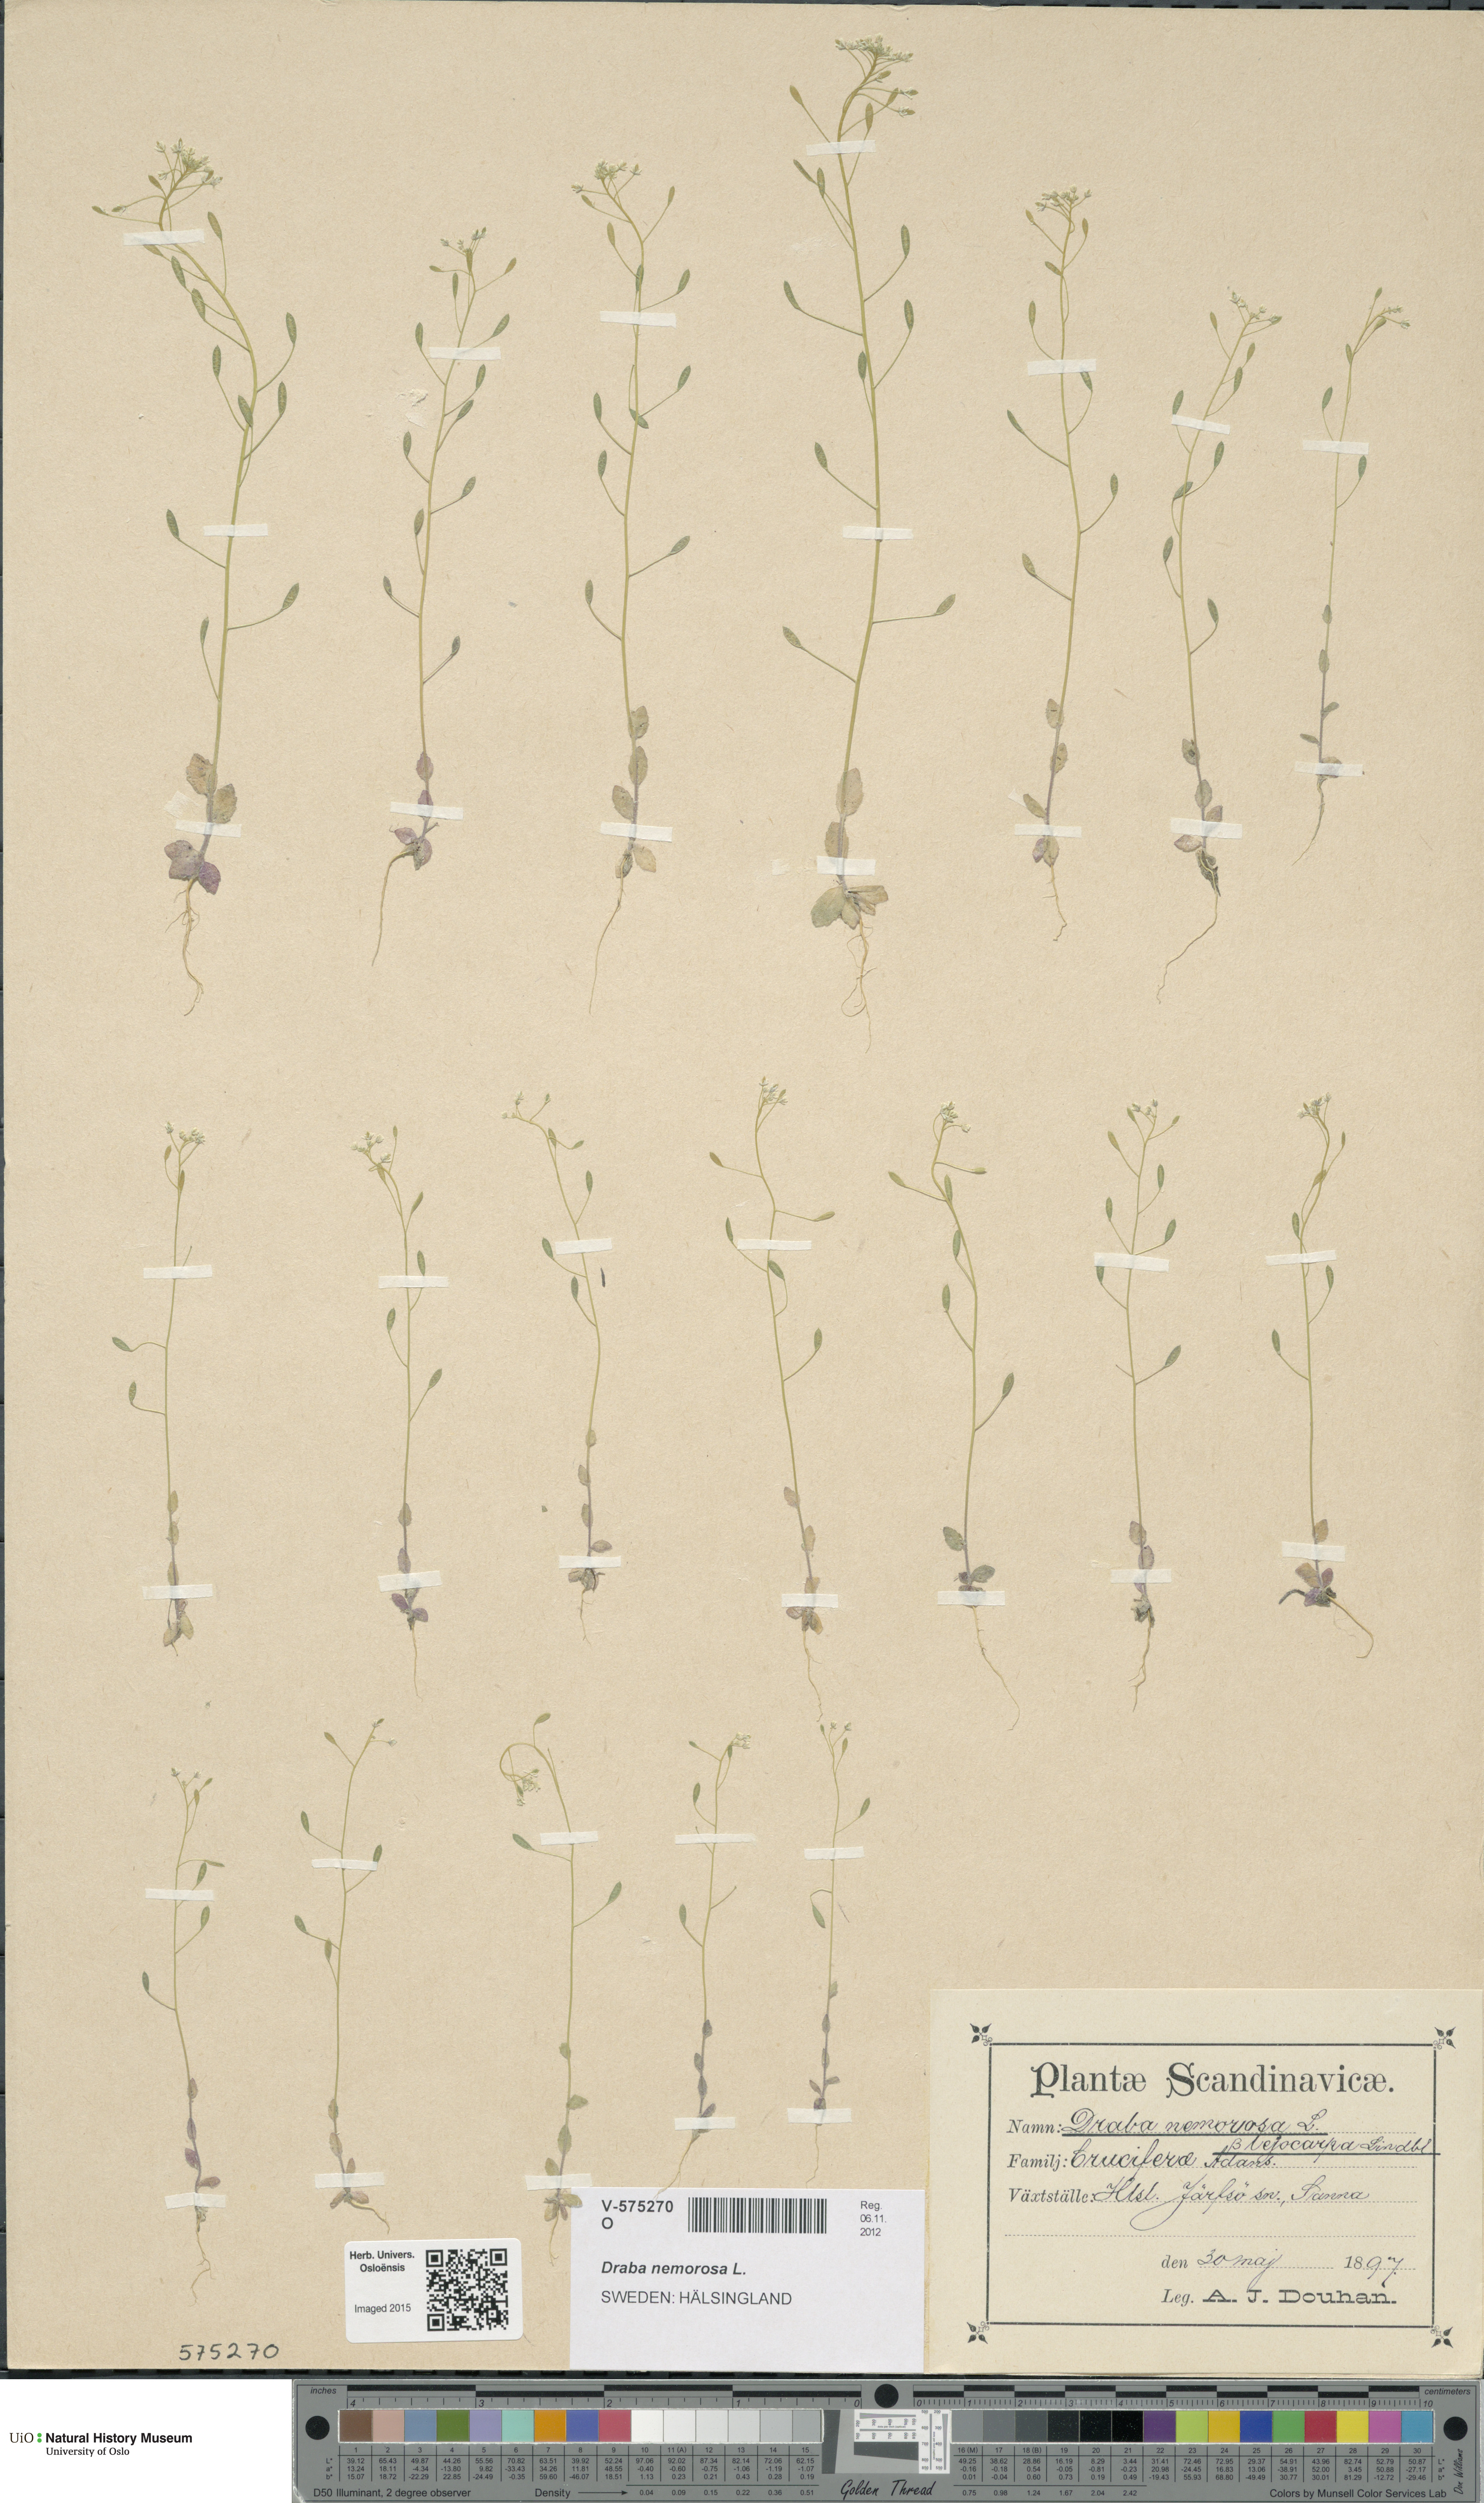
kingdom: Plantae
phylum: Tracheophyta
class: Magnoliopsida
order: Brassicales
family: Brassicaceae
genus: Draba
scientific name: Draba nemorosa
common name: Wood whitlow-grass
